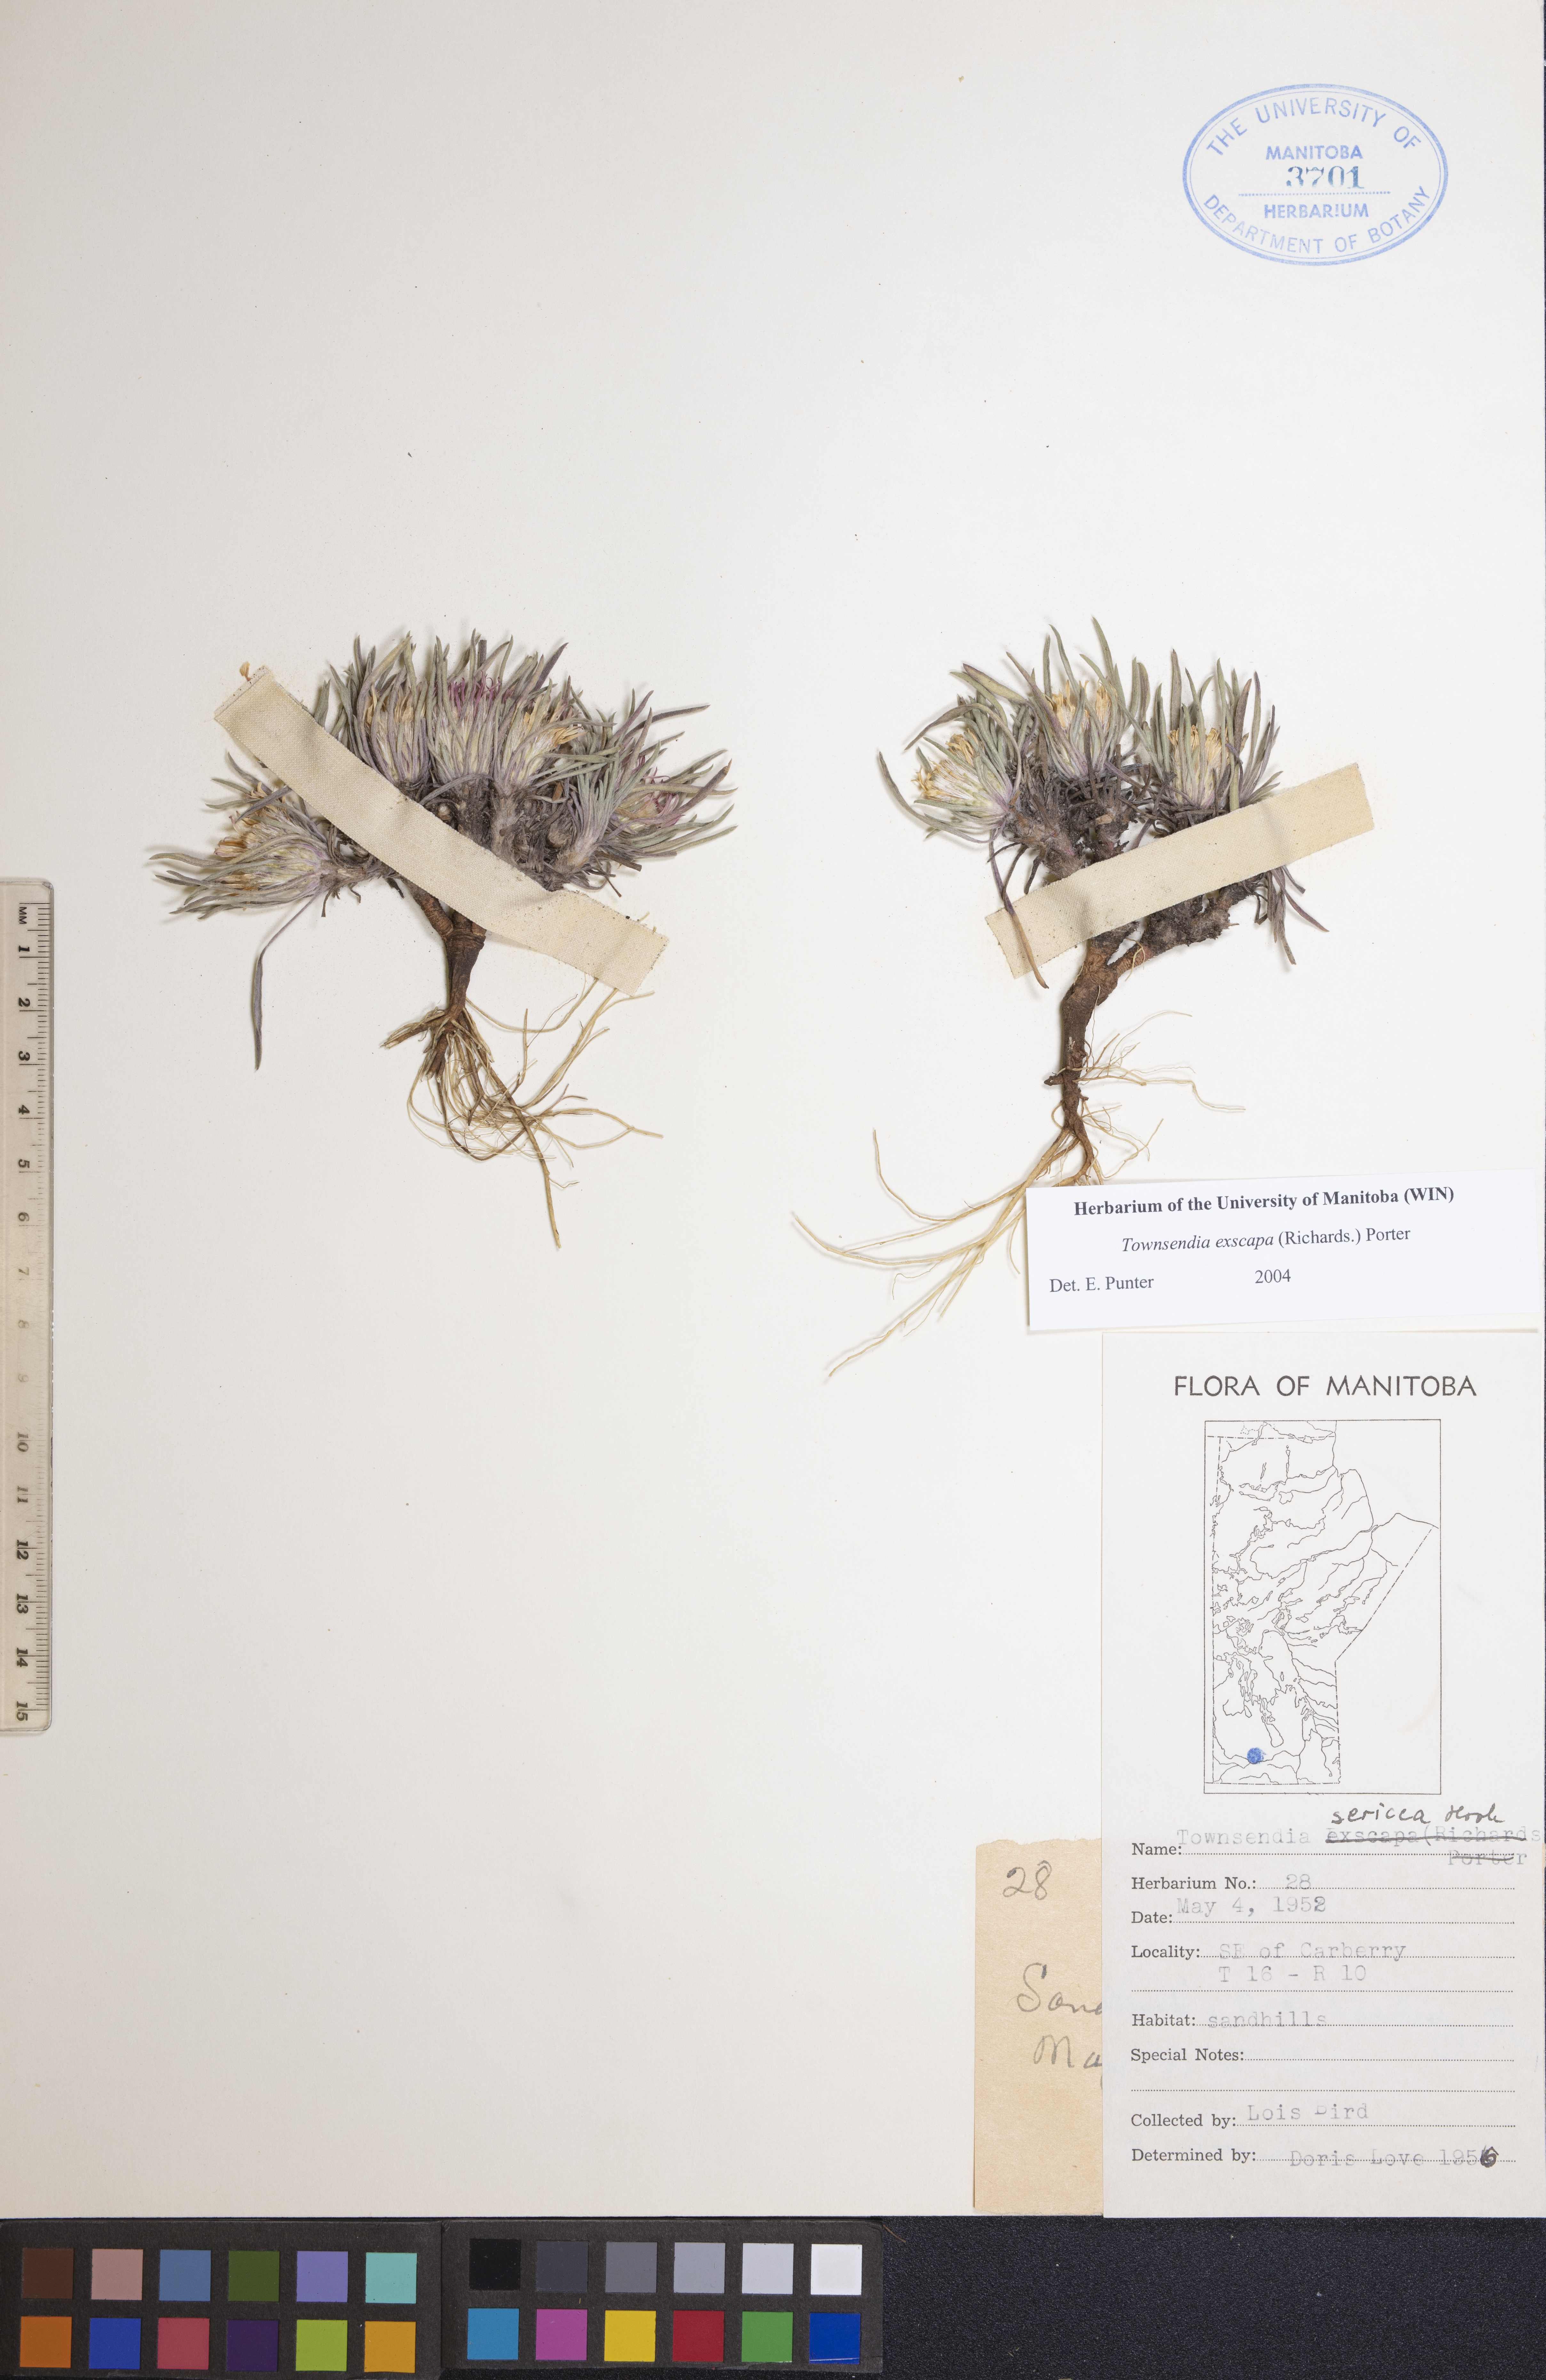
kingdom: Plantae
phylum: Tracheophyta
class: Magnoliopsida
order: Asterales
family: Asteraceae
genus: Townsendia
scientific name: Townsendia exscapa
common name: Dwarf townsendia
